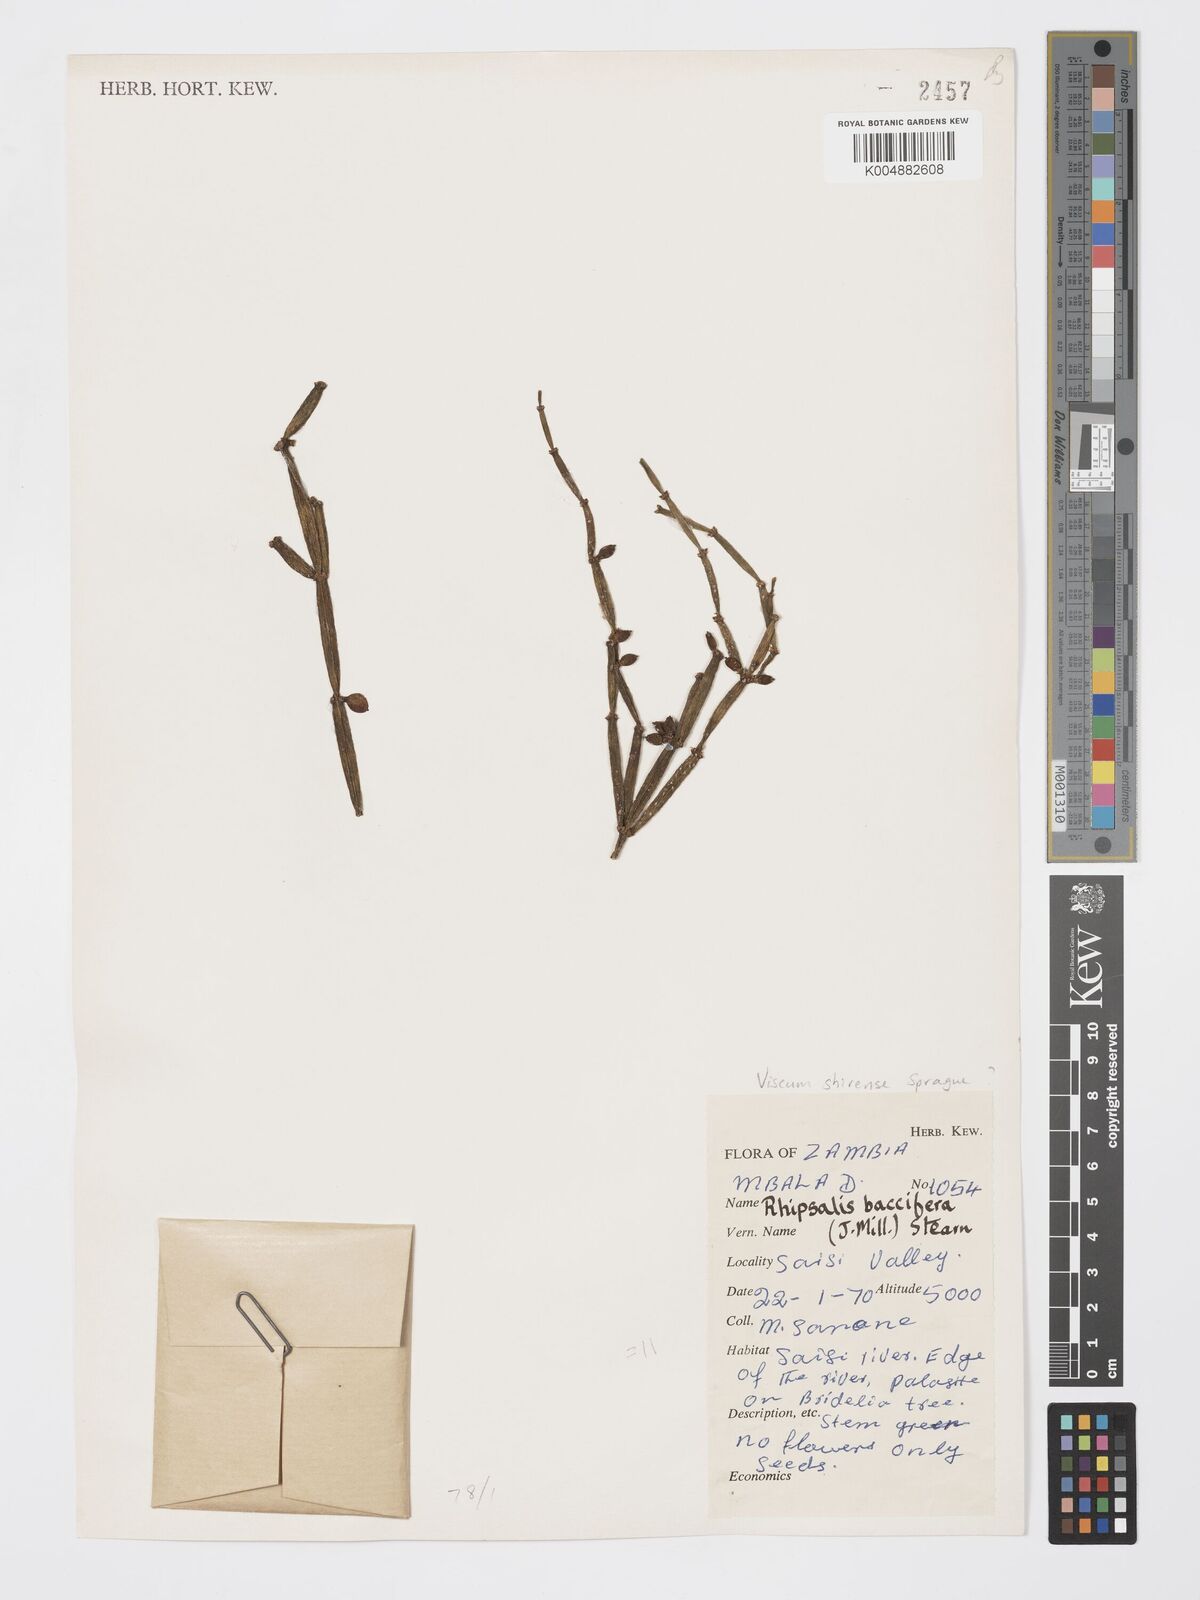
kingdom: Plantae
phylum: Tracheophyta
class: Magnoliopsida
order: Santalales
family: Viscaceae
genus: Viscum
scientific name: Viscum junodii
